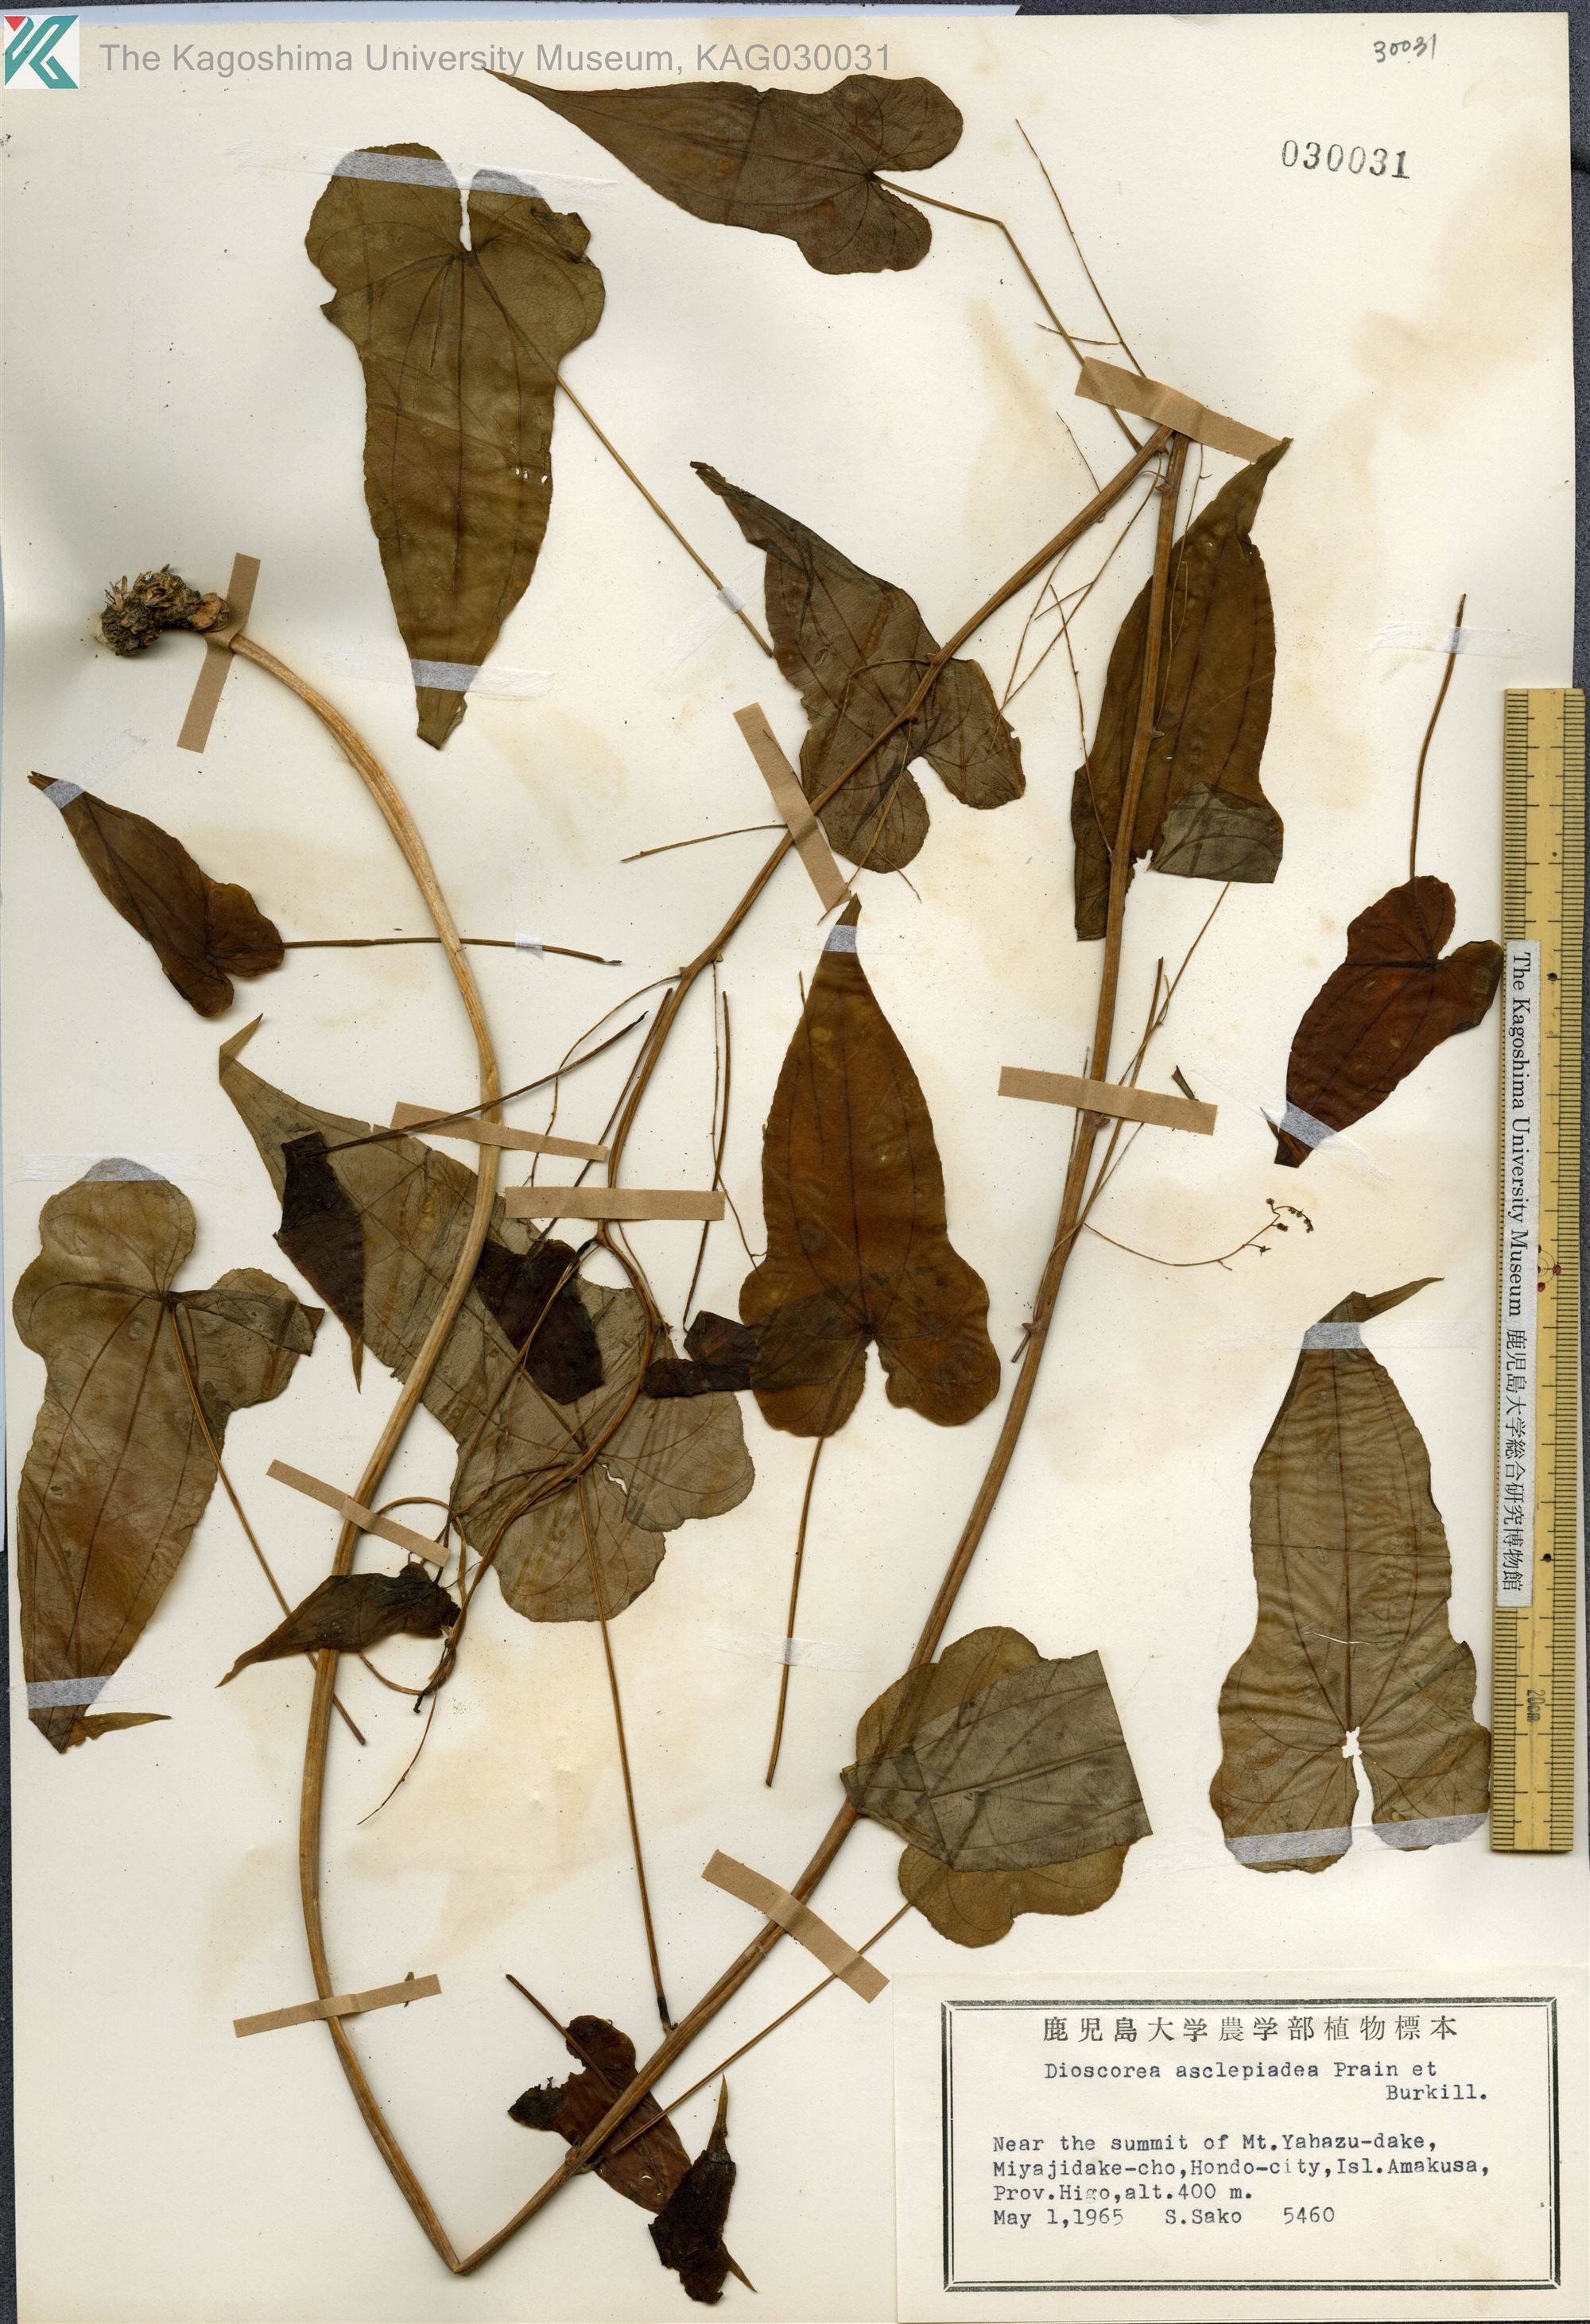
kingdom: Plantae
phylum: Tracheophyta
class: Liliopsida
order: Dioscoreales
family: Dioscoreaceae
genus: Dioscorea
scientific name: Dioscorea asclepiadea
